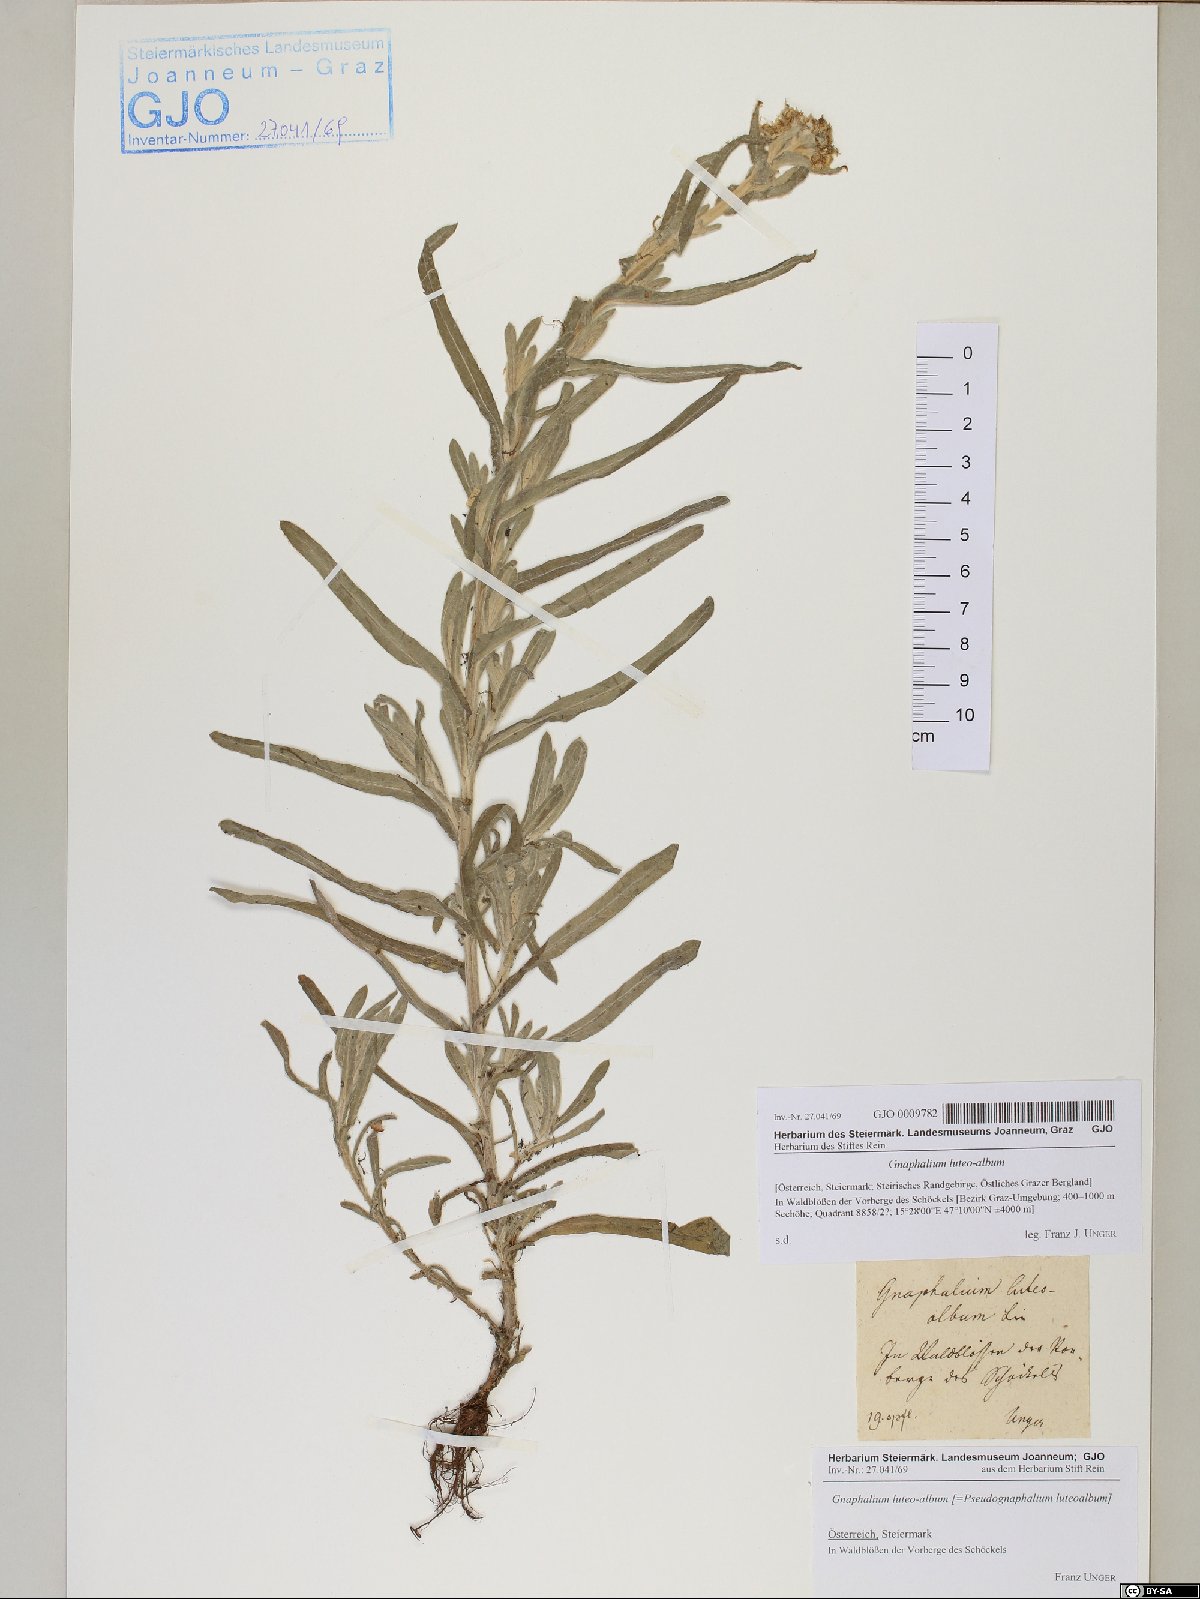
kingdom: Plantae
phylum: Tracheophyta
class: Magnoliopsida
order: Asterales
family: Asteraceae
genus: Helichrysum
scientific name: Helichrysum luteoalbum
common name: Daisy
